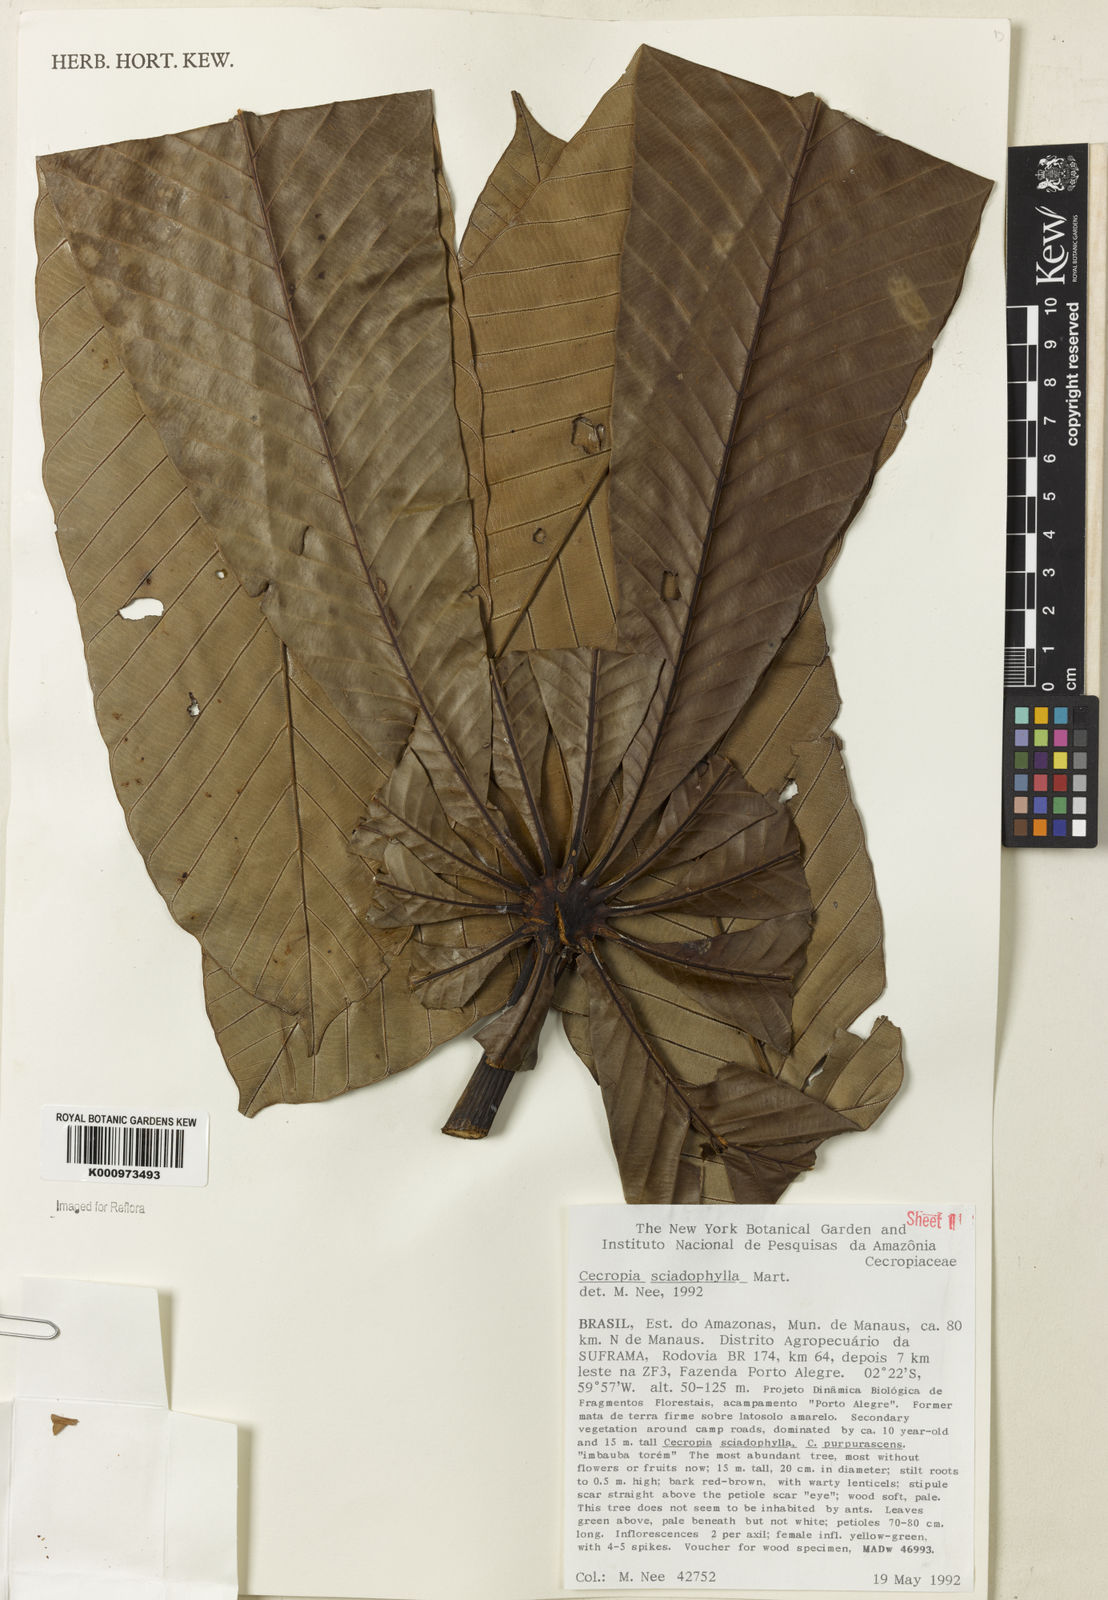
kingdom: Plantae
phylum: Tracheophyta
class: Magnoliopsida
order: Rosales
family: Urticaceae
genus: Cecropia
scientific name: Cecropia sciadophylla
